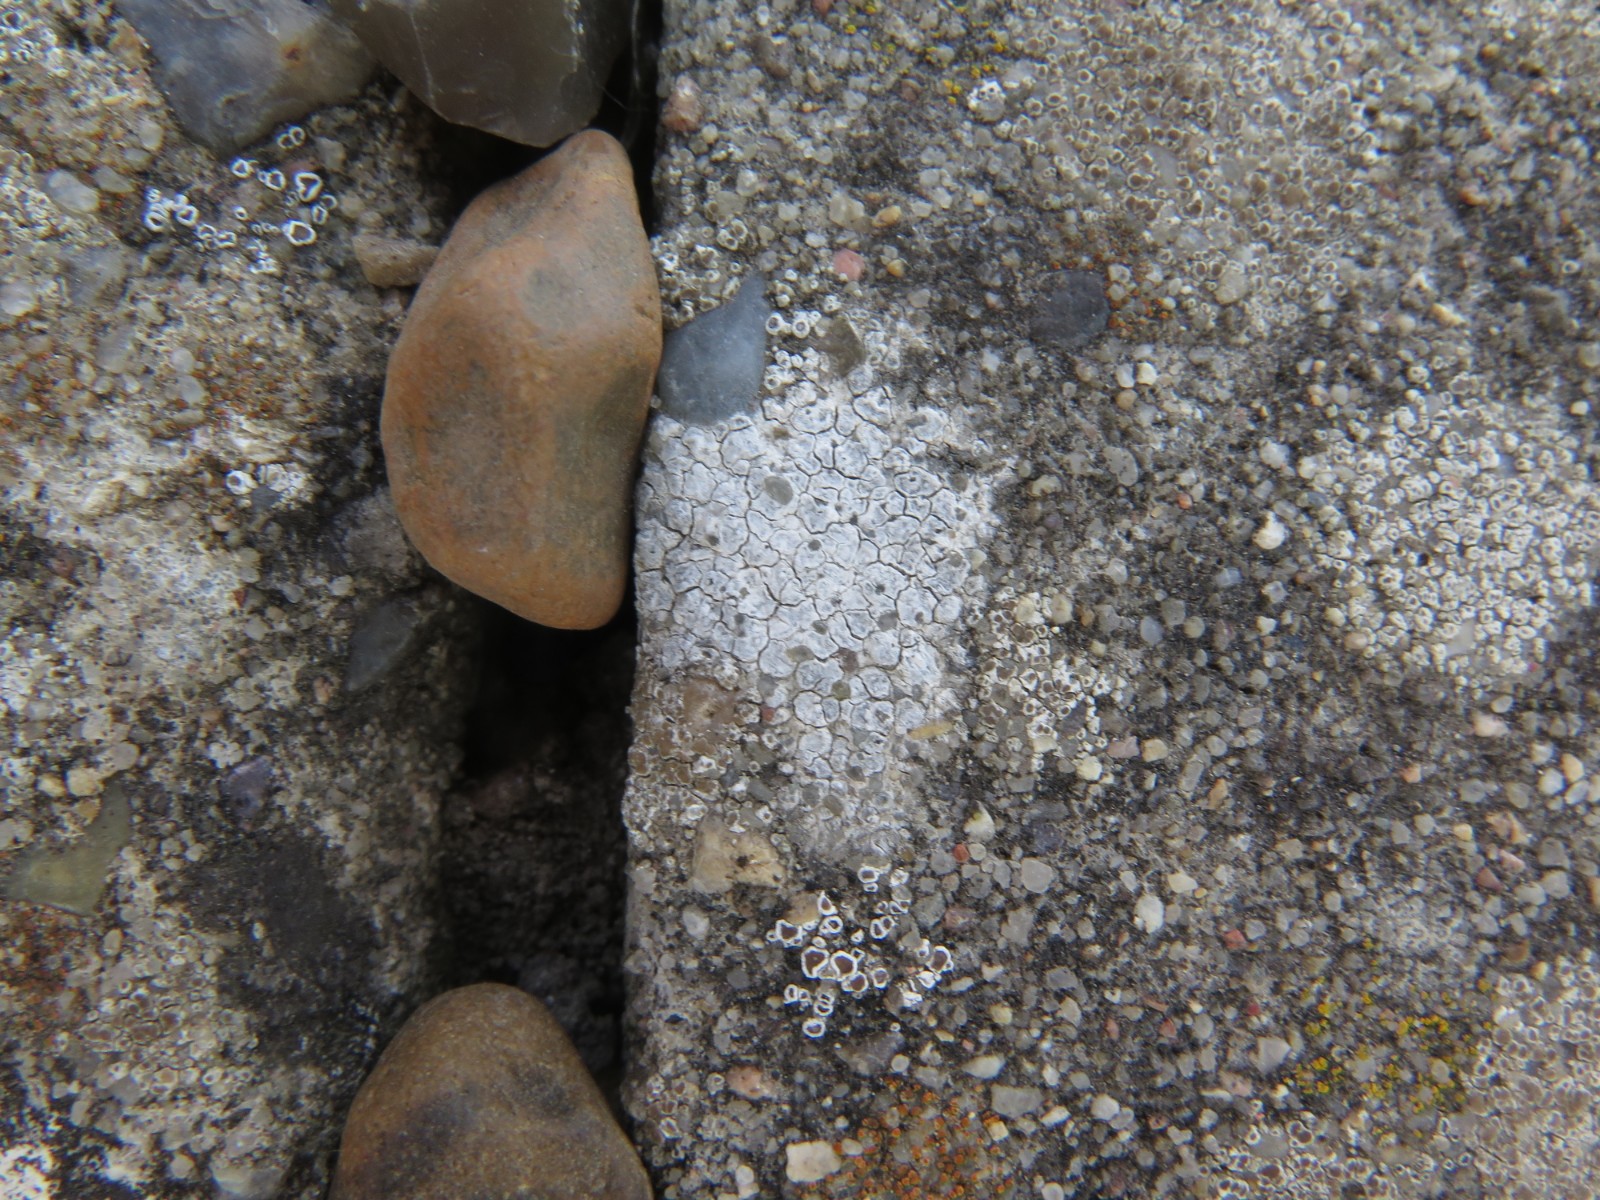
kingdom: Fungi
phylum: Ascomycota
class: Lecanoromycetes
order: Pertusariales
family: Megasporaceae
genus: Circinaria
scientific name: Circinaria contorta
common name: indviklet hulskivelav
